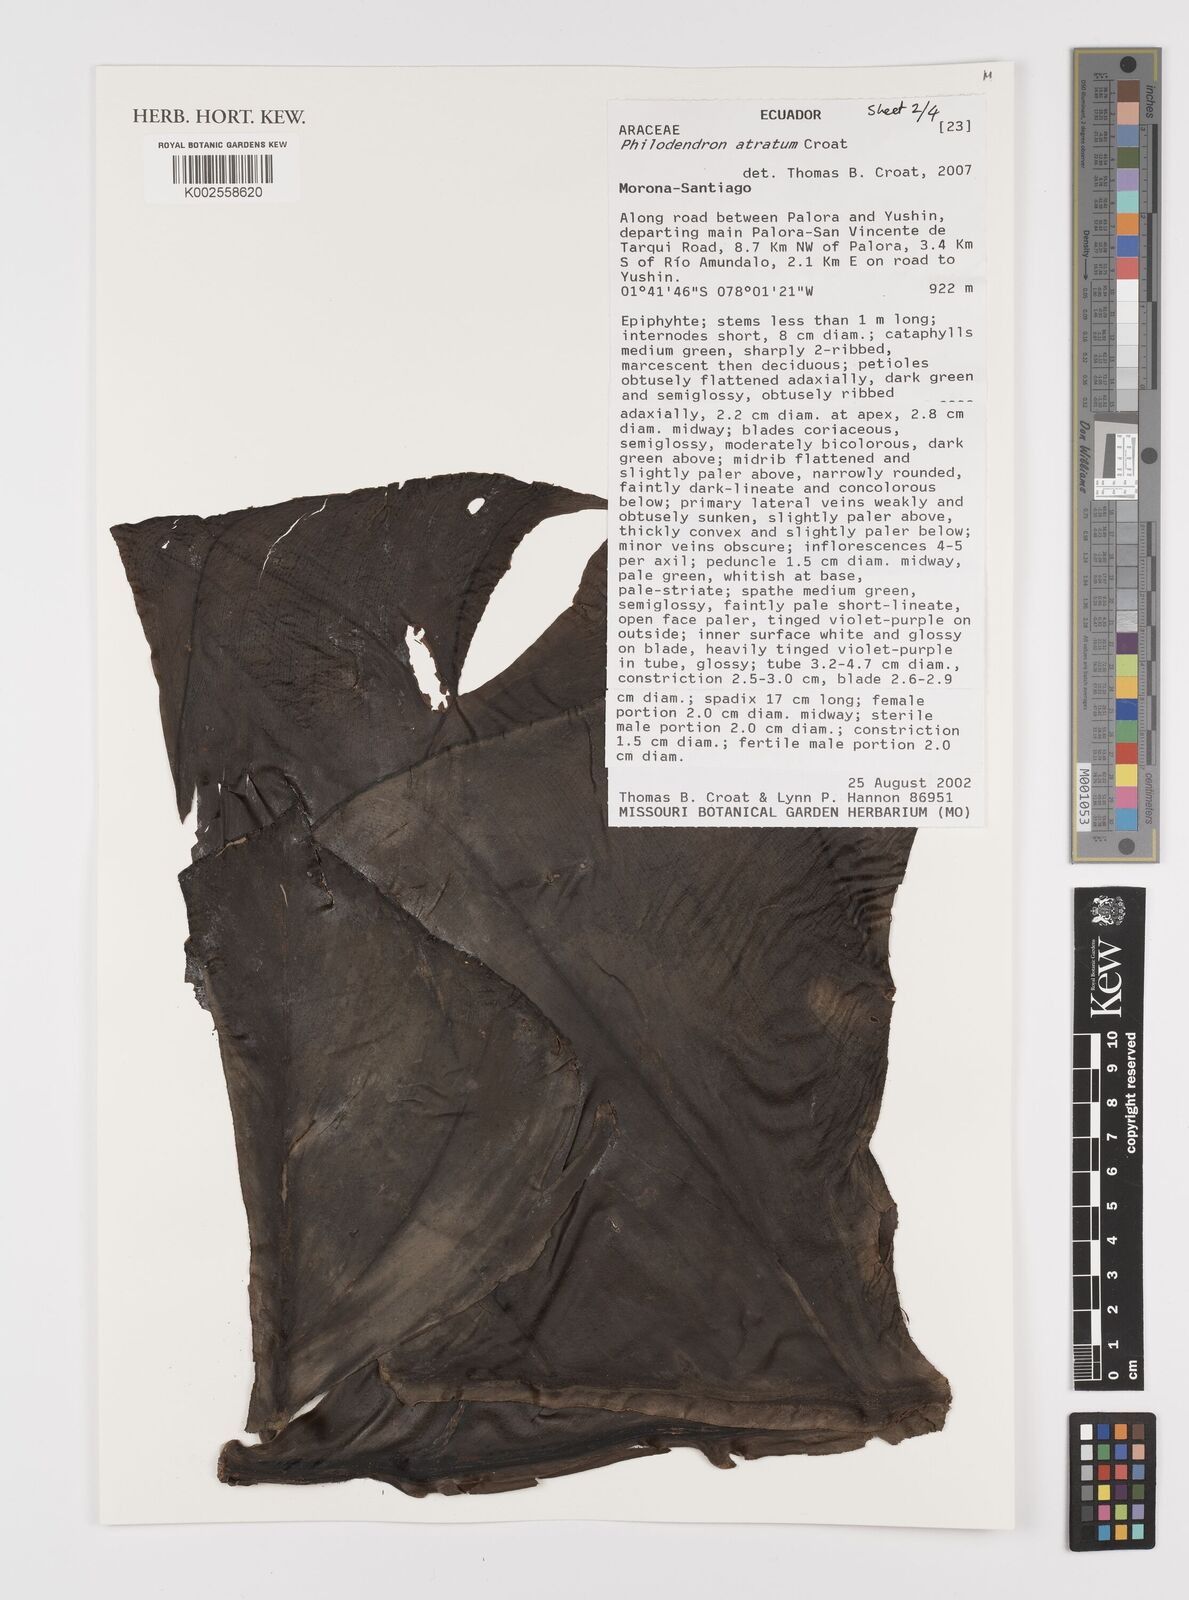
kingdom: Plantae
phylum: Tracheophyta
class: Liliopsida
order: Alismatales
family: Araceae
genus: Philodendron
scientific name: Philodendron atratum
